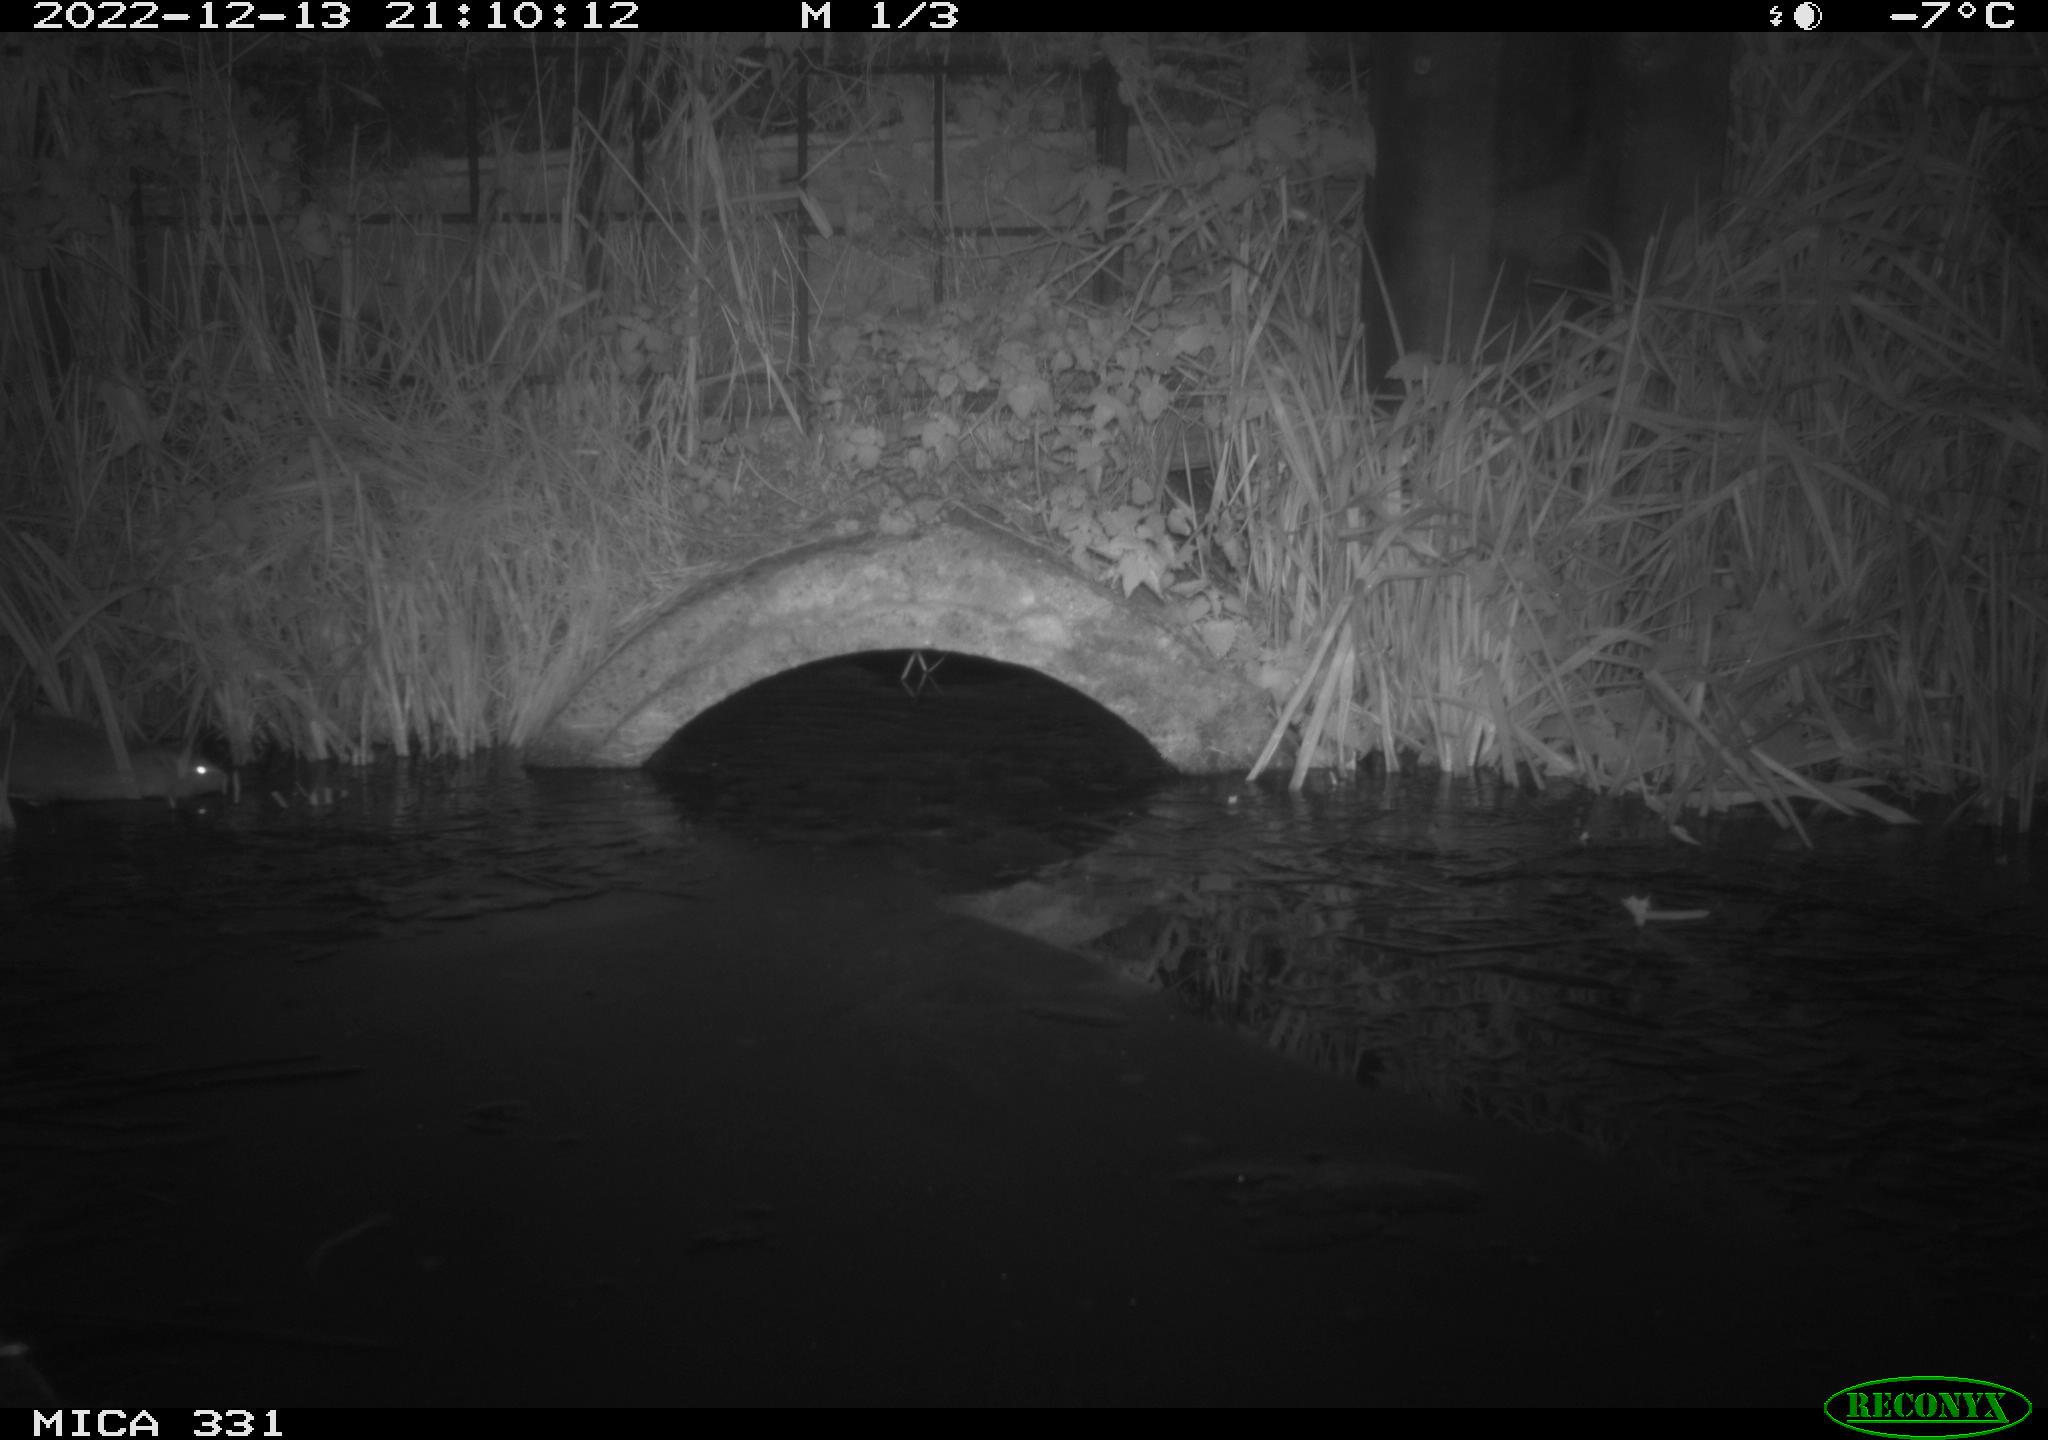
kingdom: Animalia
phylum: Chordata
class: Mammalia
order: Rodentia
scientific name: Rodentia
